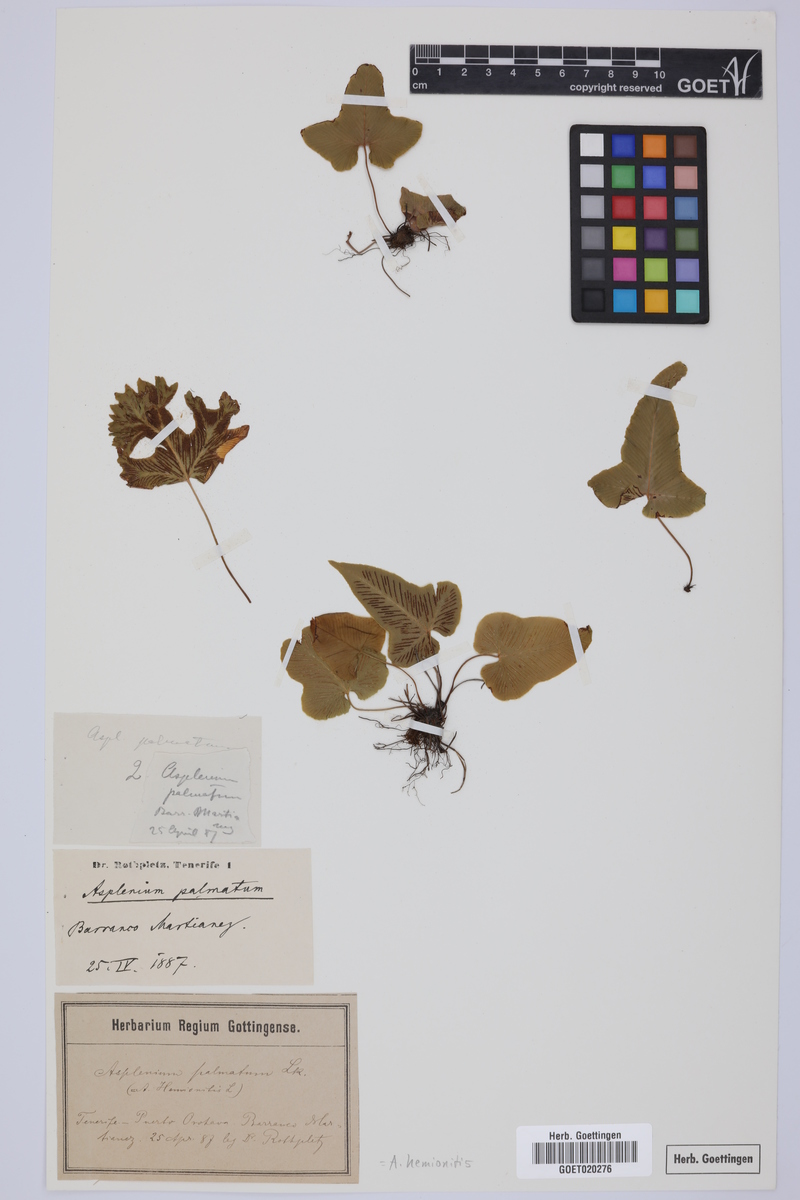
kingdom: Plantae
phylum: Tracheophyta
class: Polypodiopsida
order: Polypodiales
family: Aspleniaceae
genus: Asplenium
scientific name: Asplenium hemionitis
